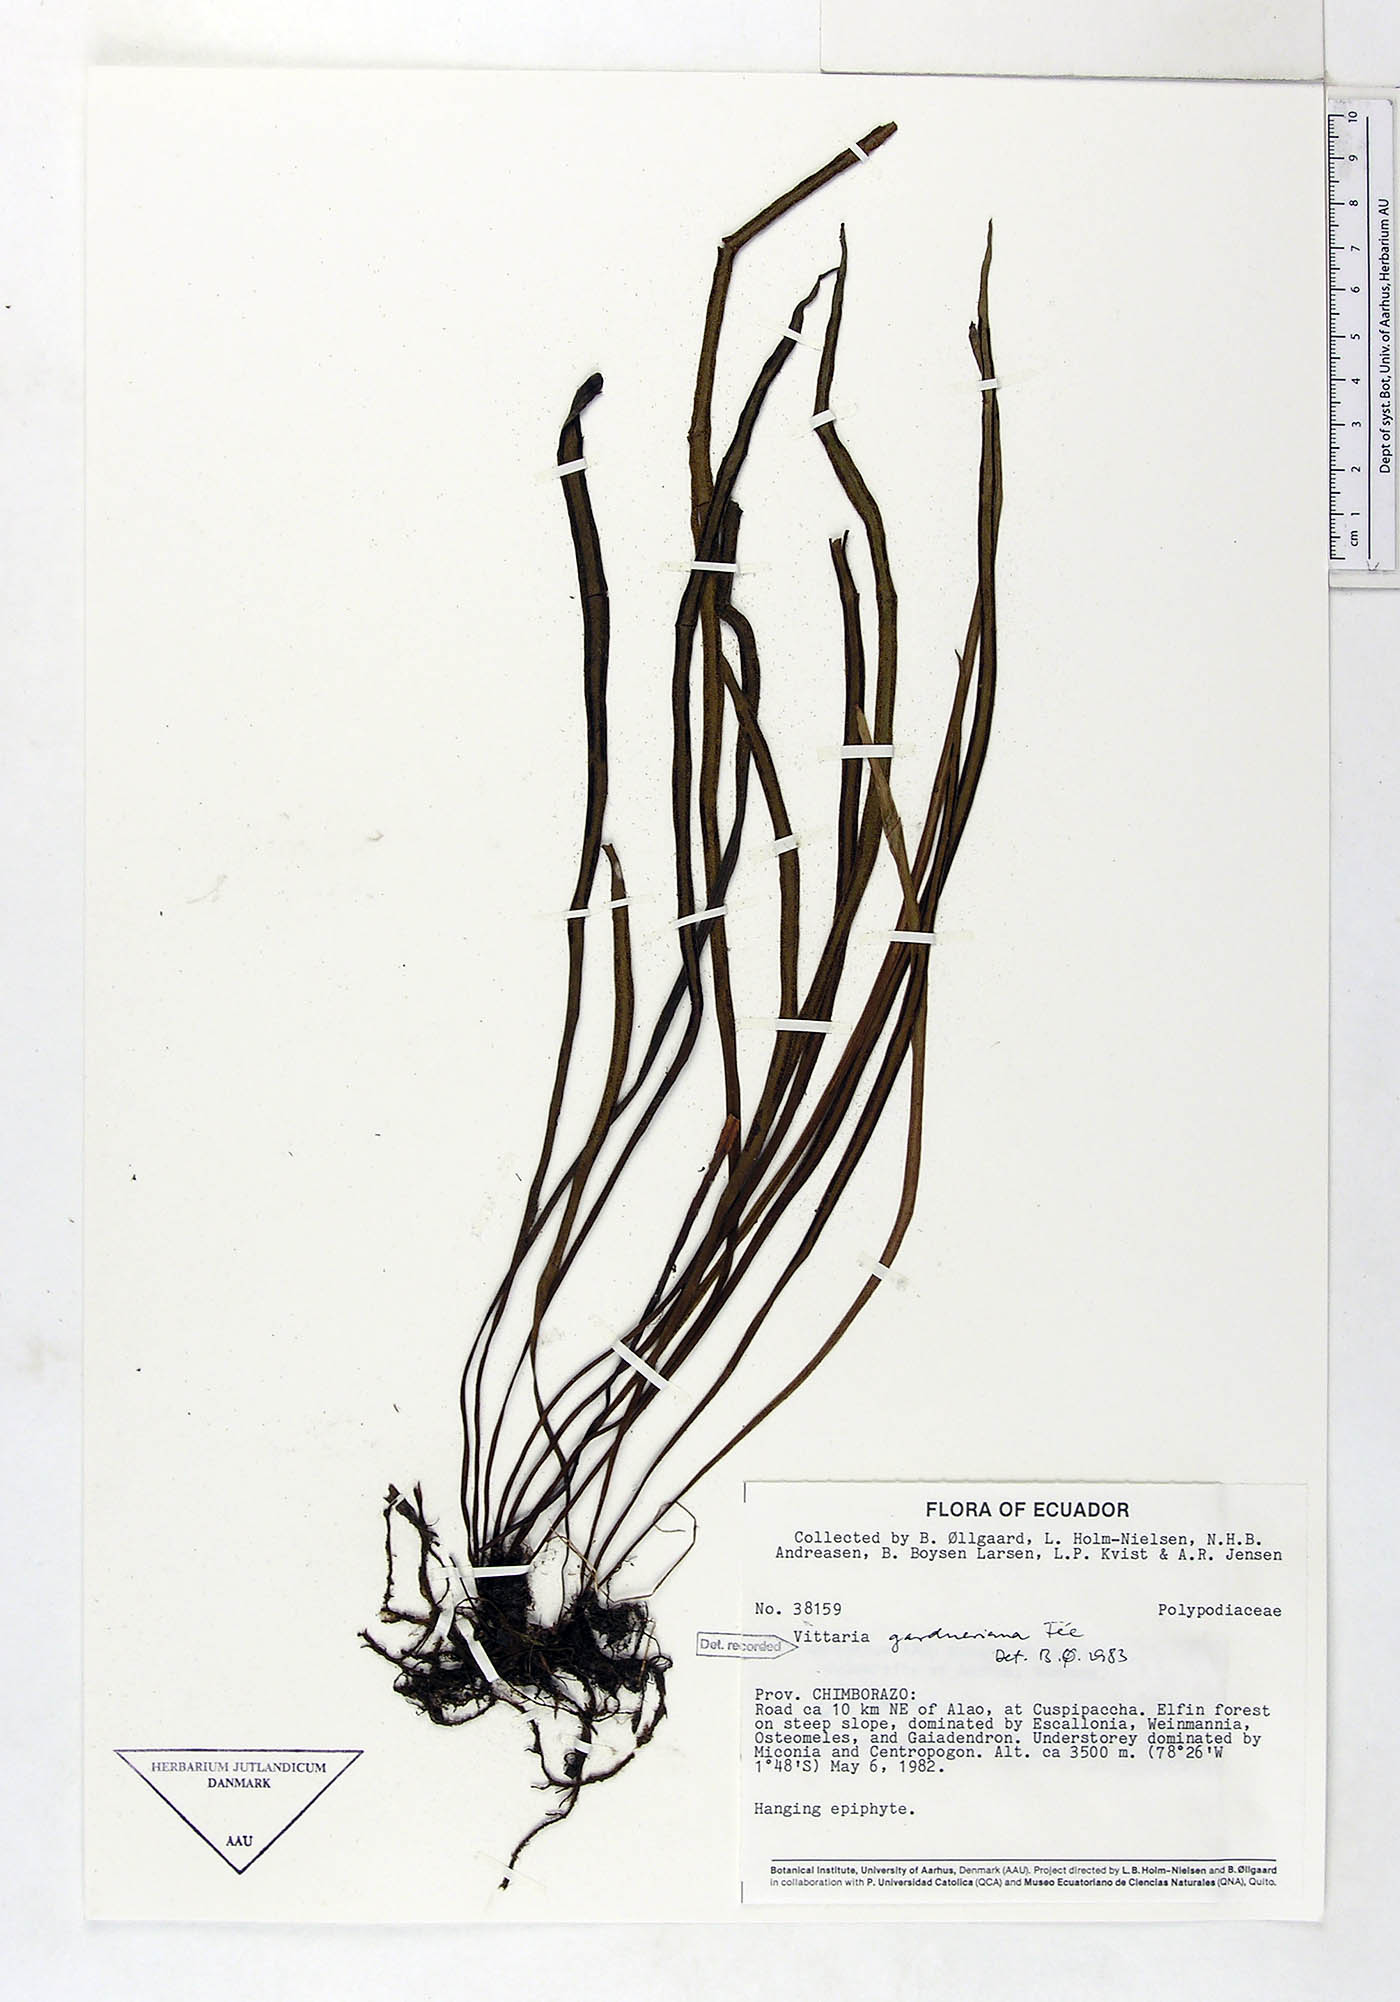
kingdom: Plantae
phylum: Tracheophyta
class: Polypodiopsida
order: Polypodiales
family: Pteridaceae
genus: Radiovittaria
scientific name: Radiovittaria gardneriana
